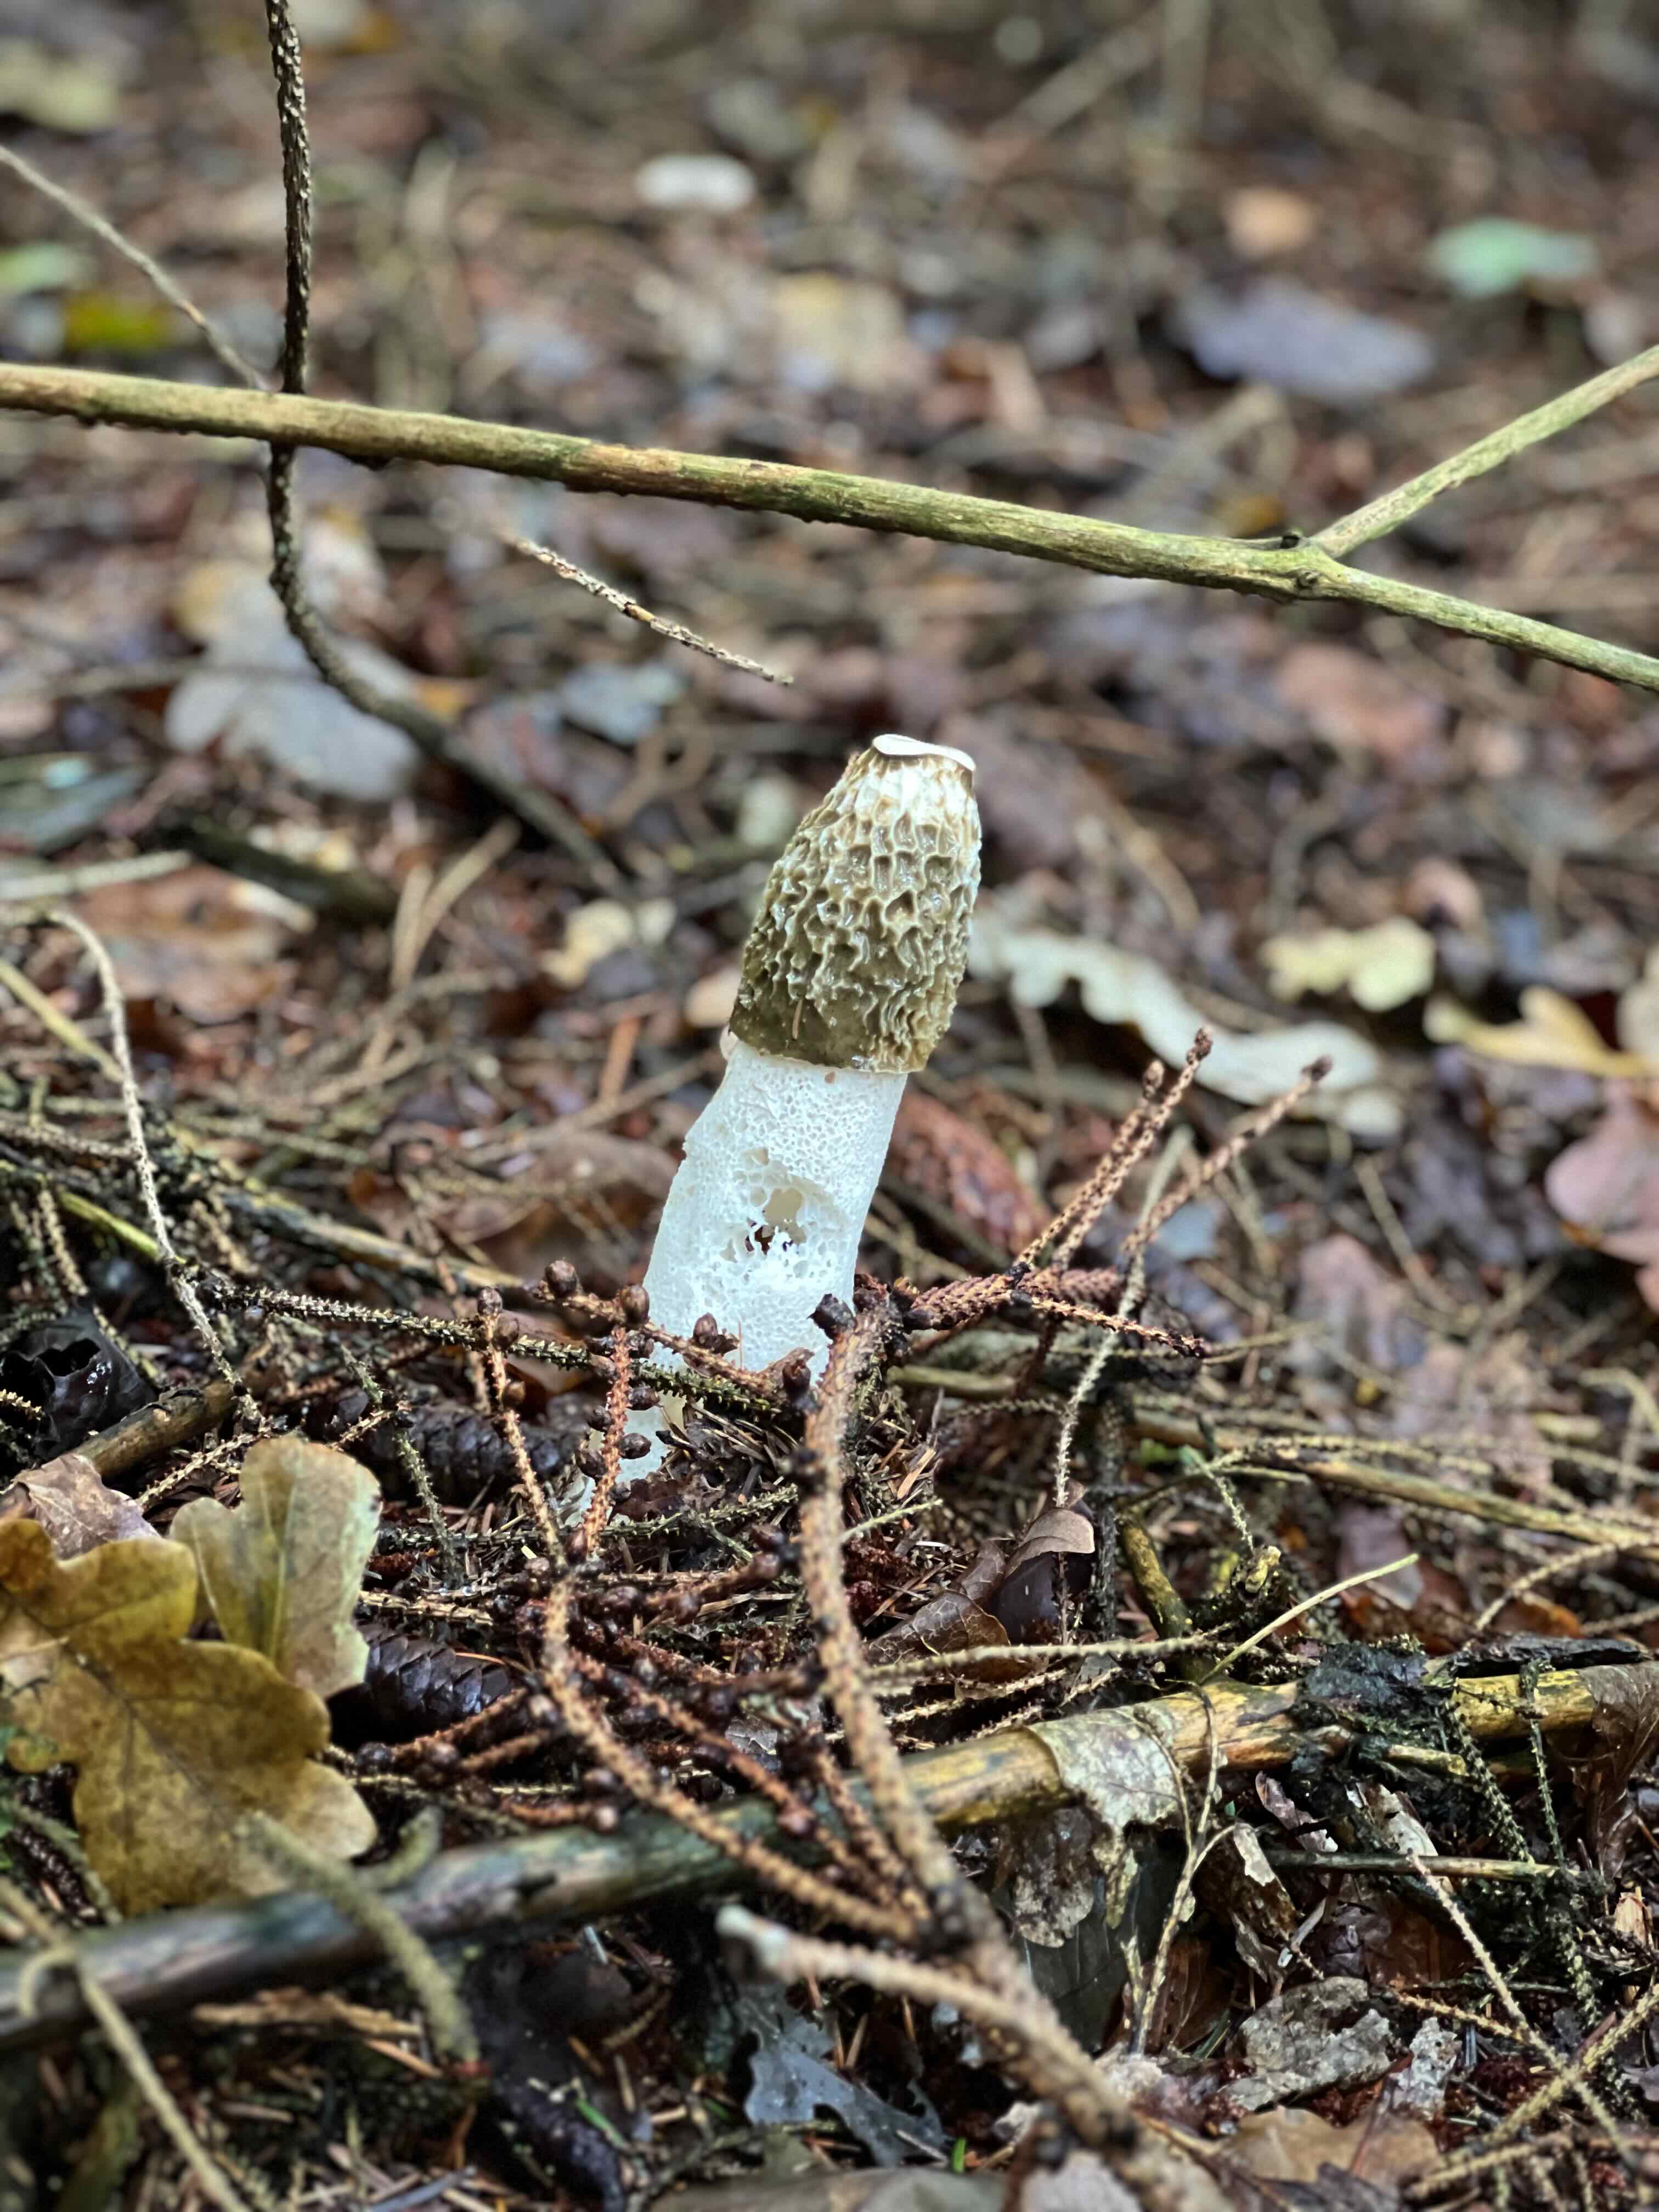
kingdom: Fungi
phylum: Basidiomycota
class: Agaricomycetes
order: Phallales
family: Phallaceae
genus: Phallus
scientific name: Phallus impudicus
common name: almindelig stinksvamp
